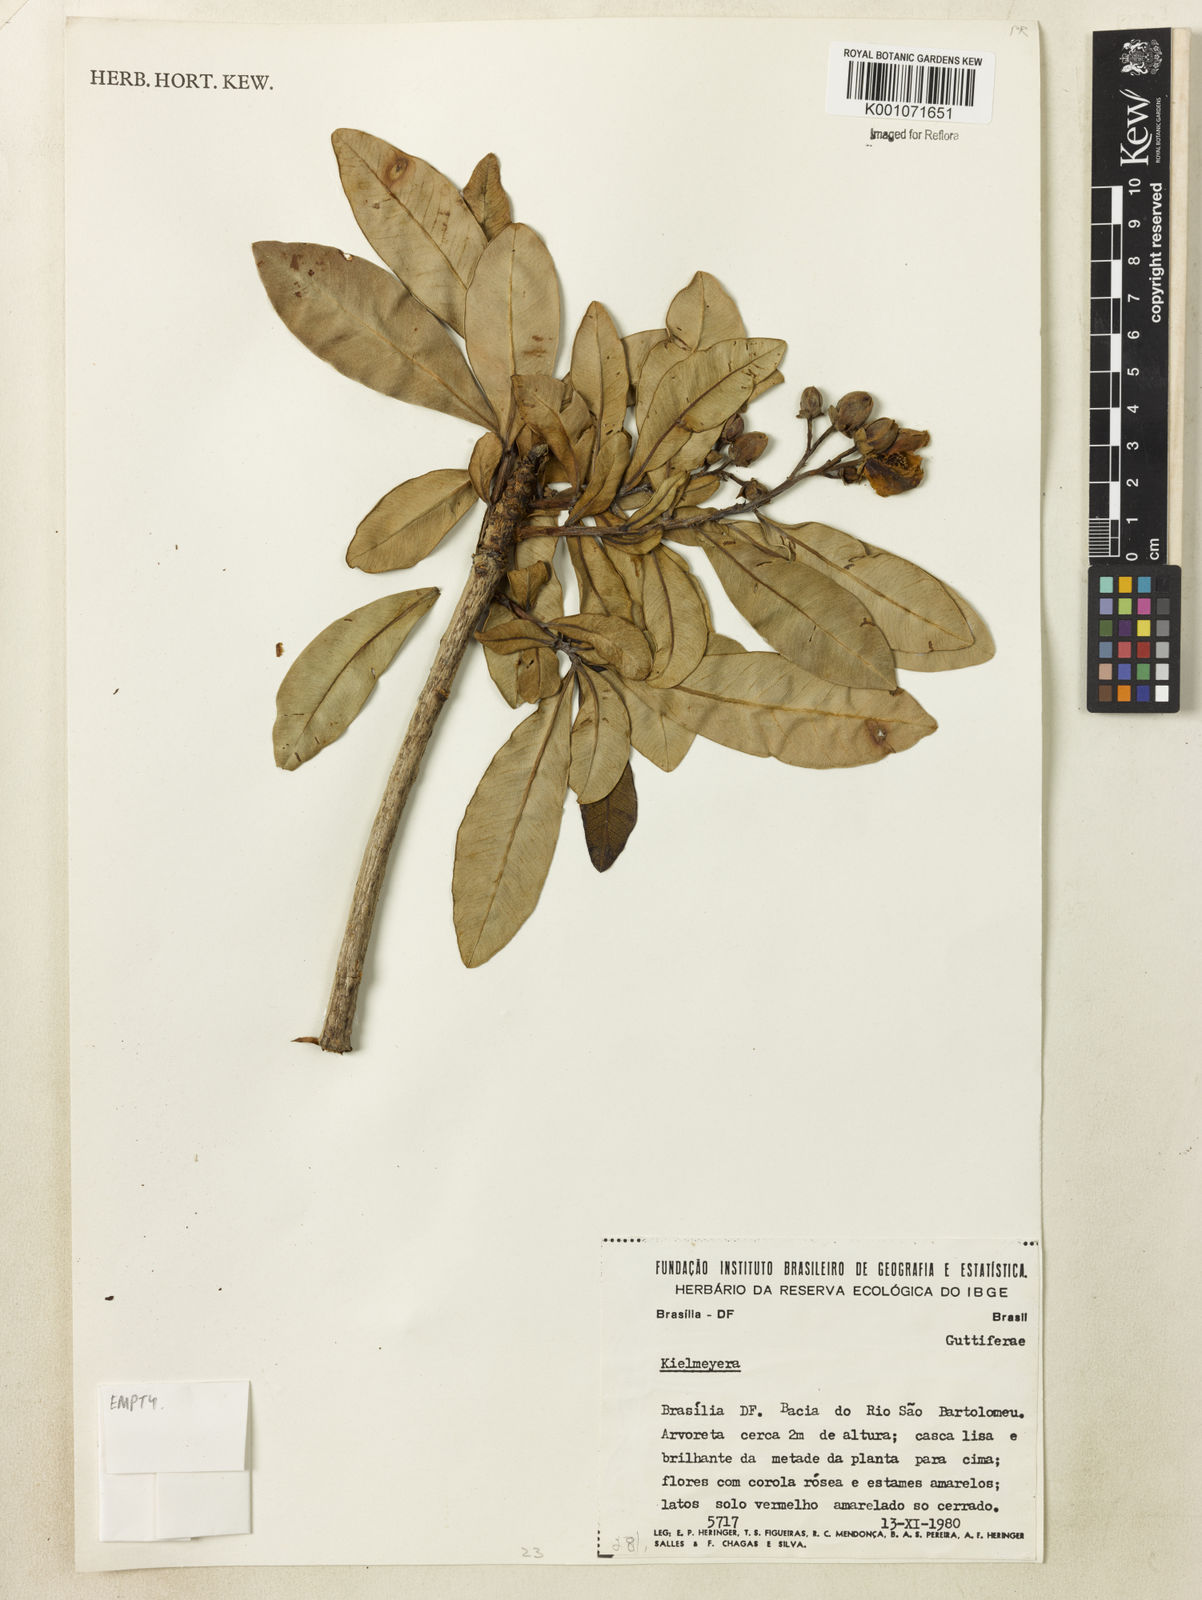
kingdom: Plantae
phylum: Tracheophyta
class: Magnoliopsida
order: Malpighiales
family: Calophyllaceae
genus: Kielmeyera
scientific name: Kielmeyera
